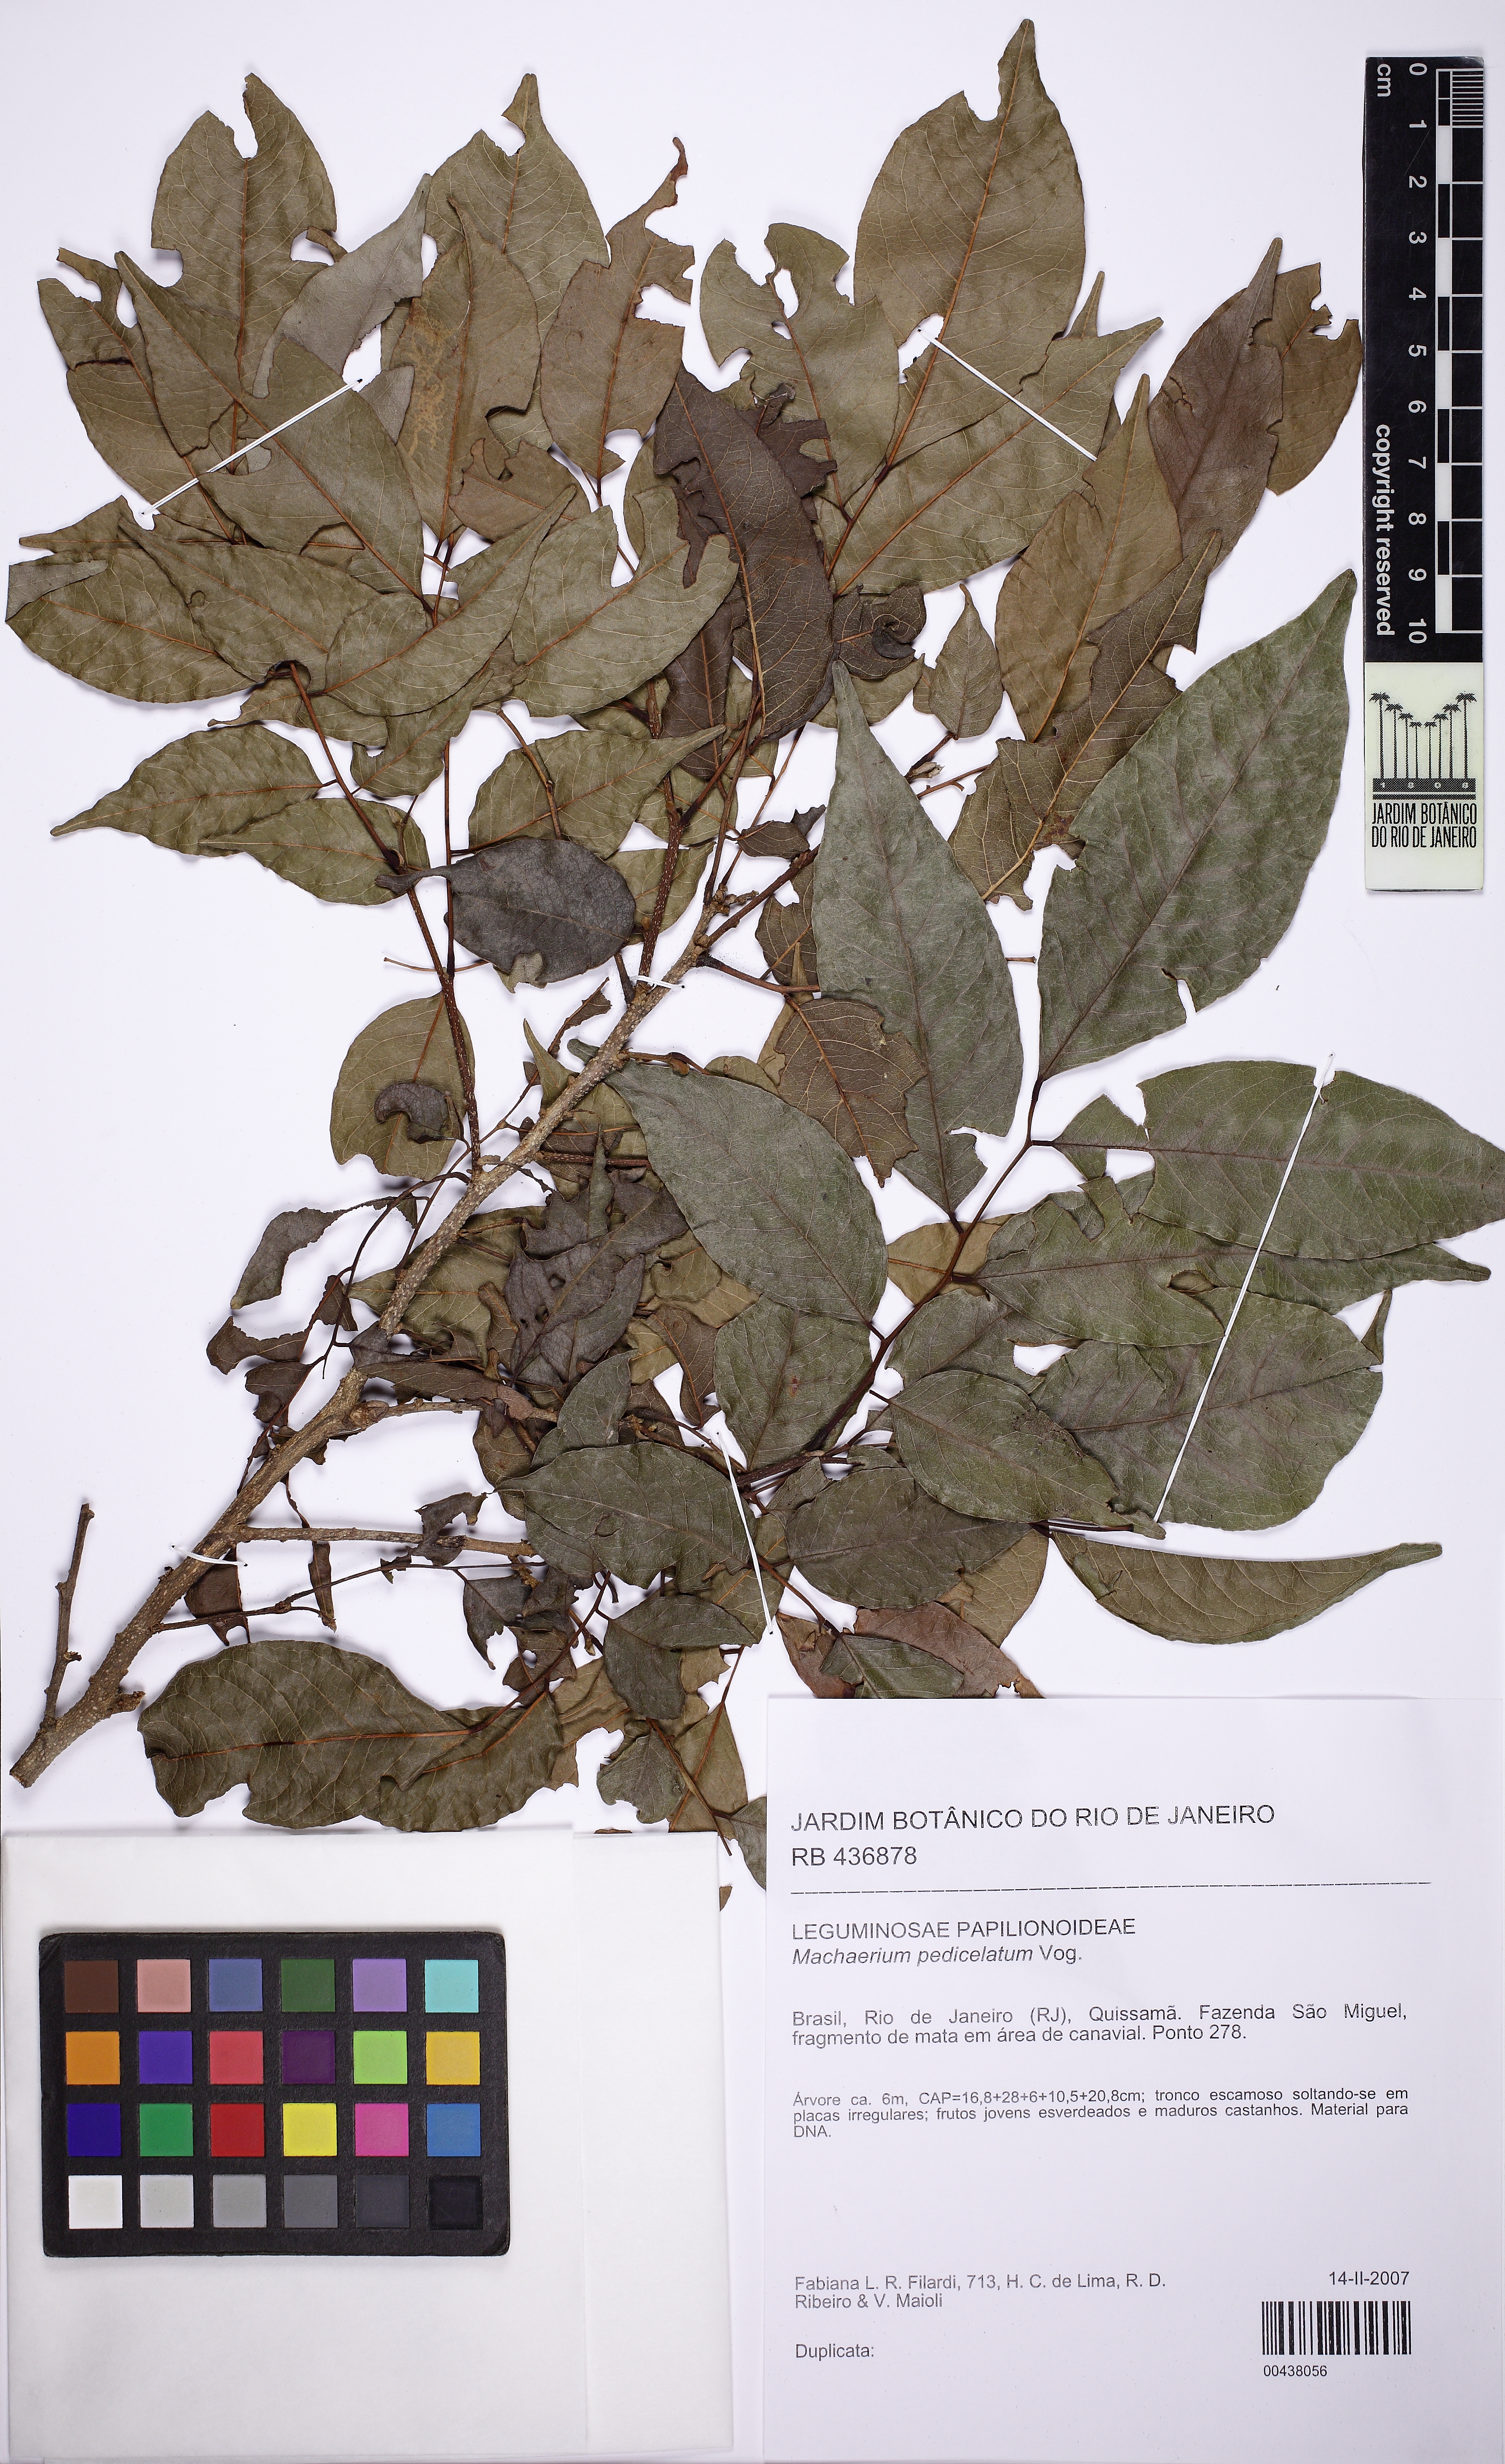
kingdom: Plantae
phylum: Tracheophyta
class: Magnoliopsida
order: Fabales
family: Fabaceae
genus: Machaerium
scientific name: Machaerium pedicellatum
